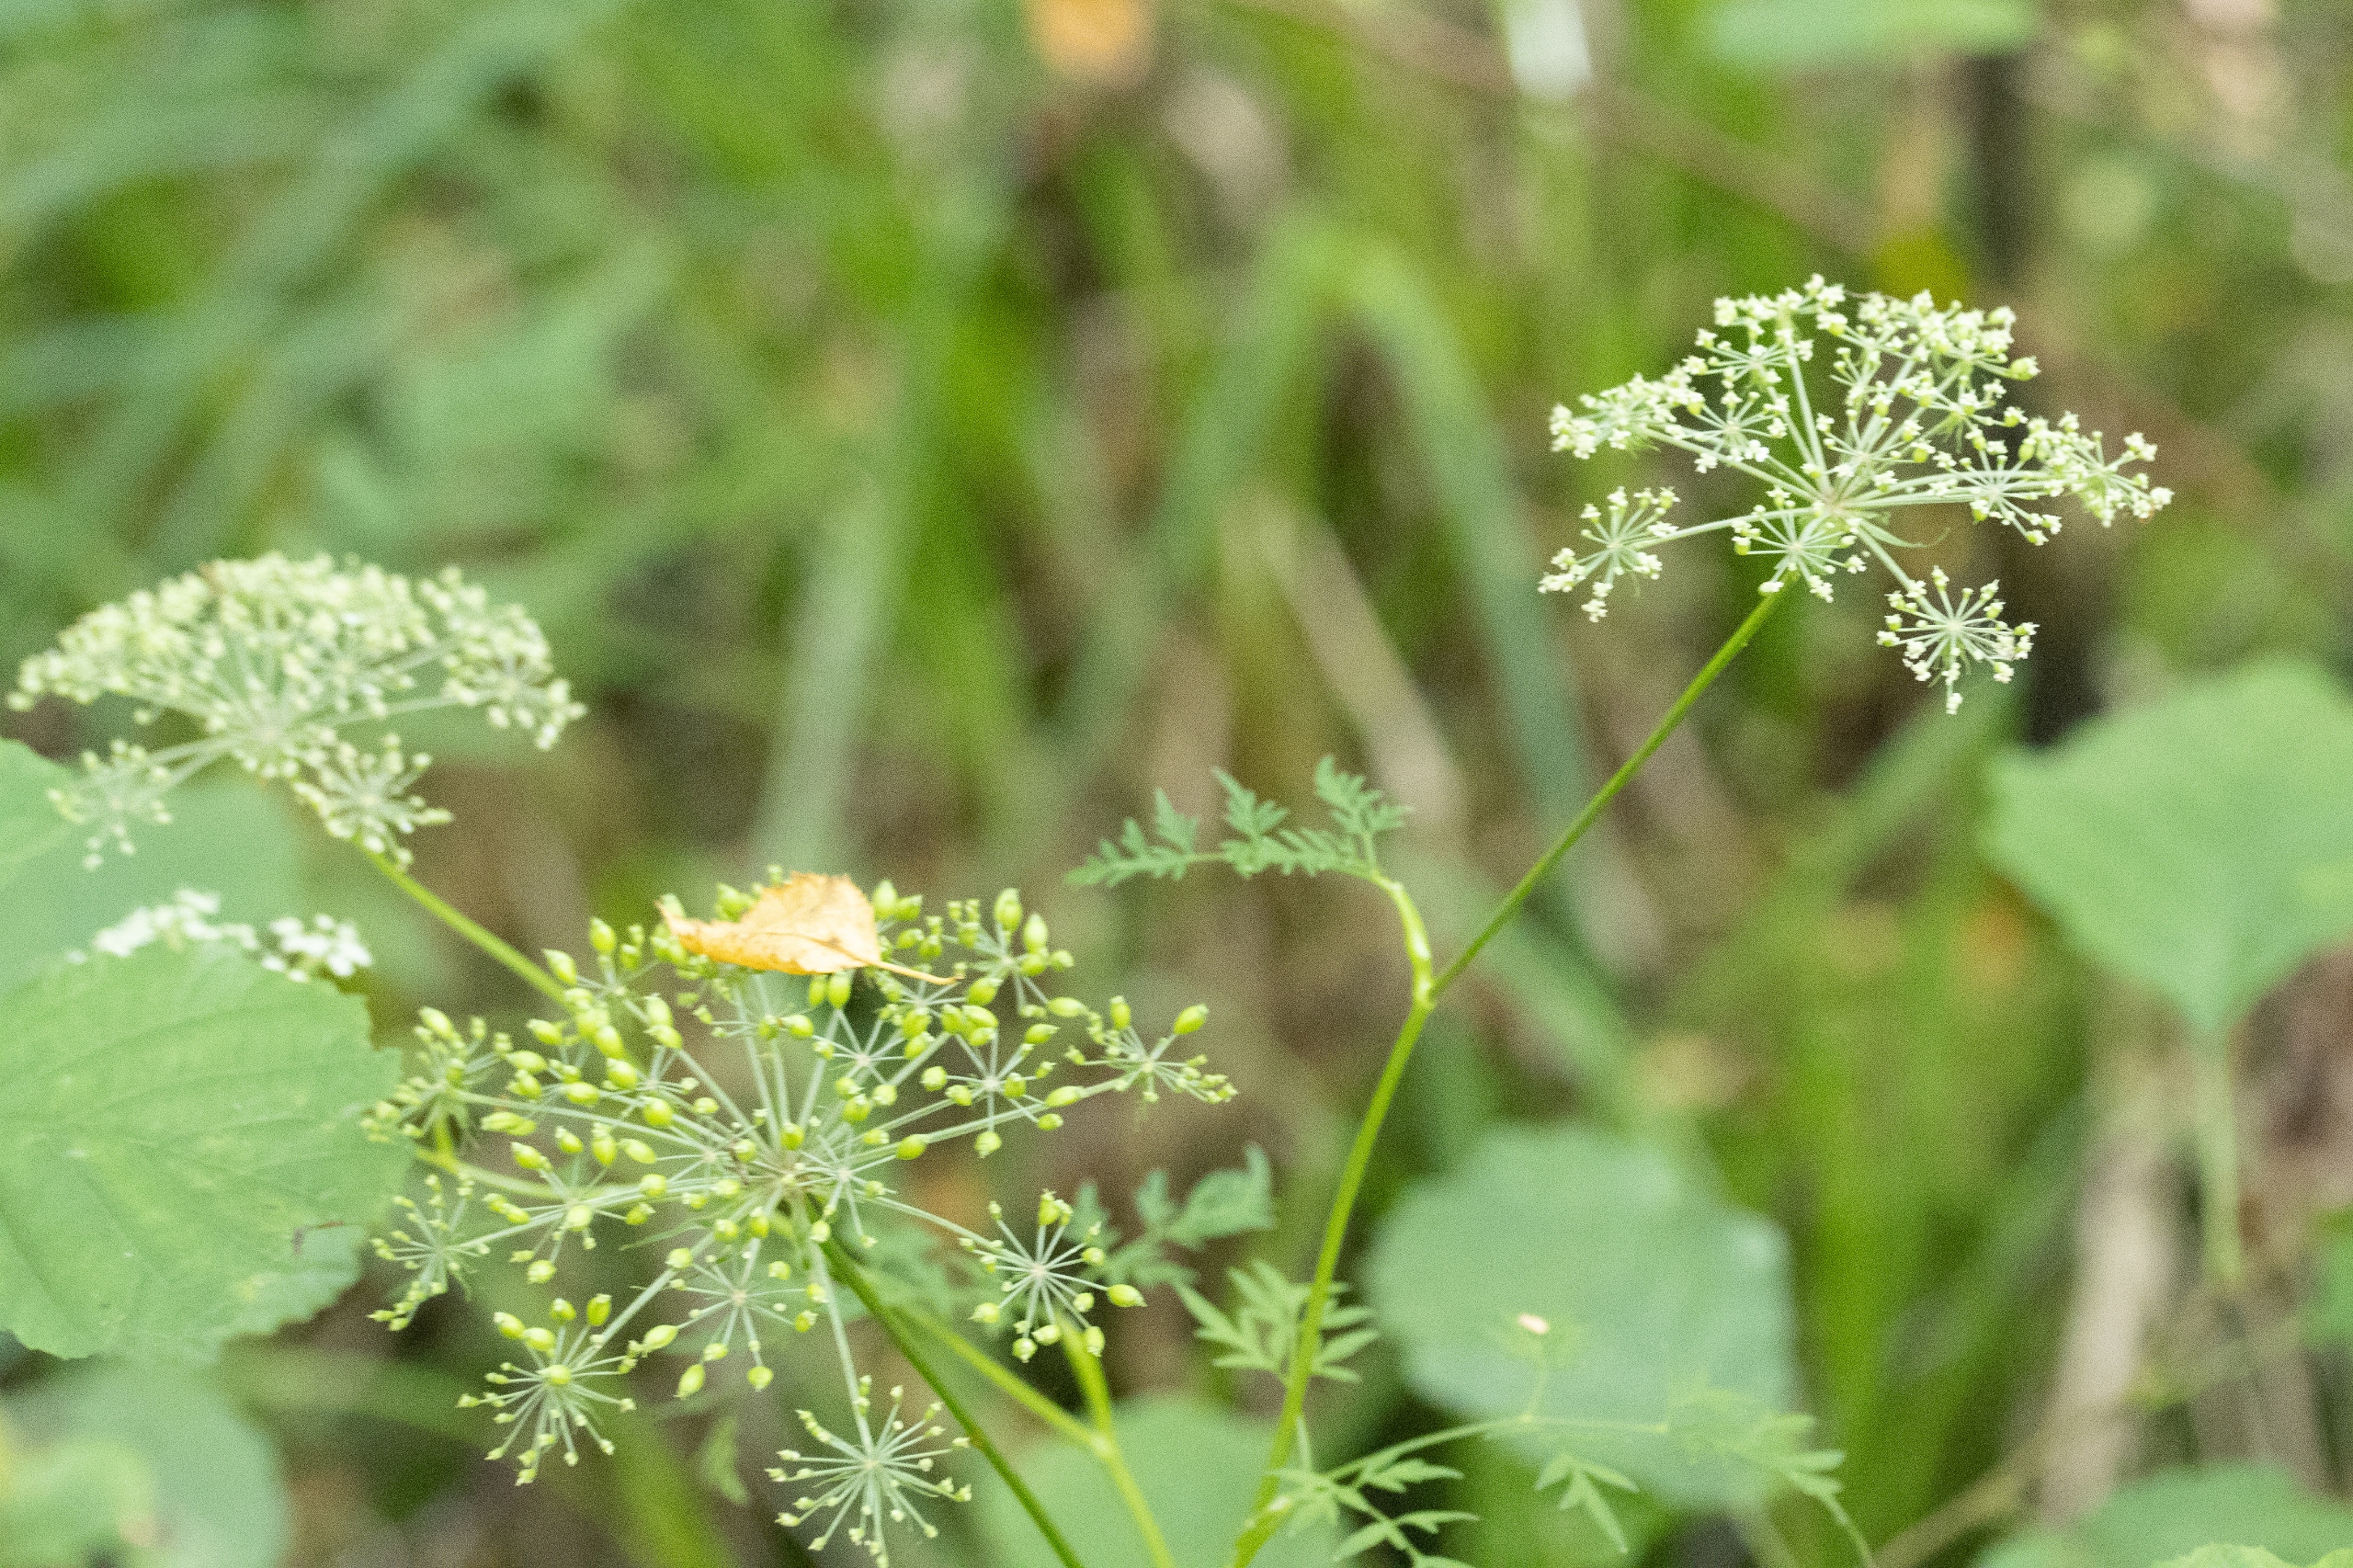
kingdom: Plantae
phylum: Tracheophyta
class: Magnoliopsida
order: Apiales
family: Apiaceae
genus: Thysselinum
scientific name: Thysselinum palustre
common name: Kær-svovlrod
